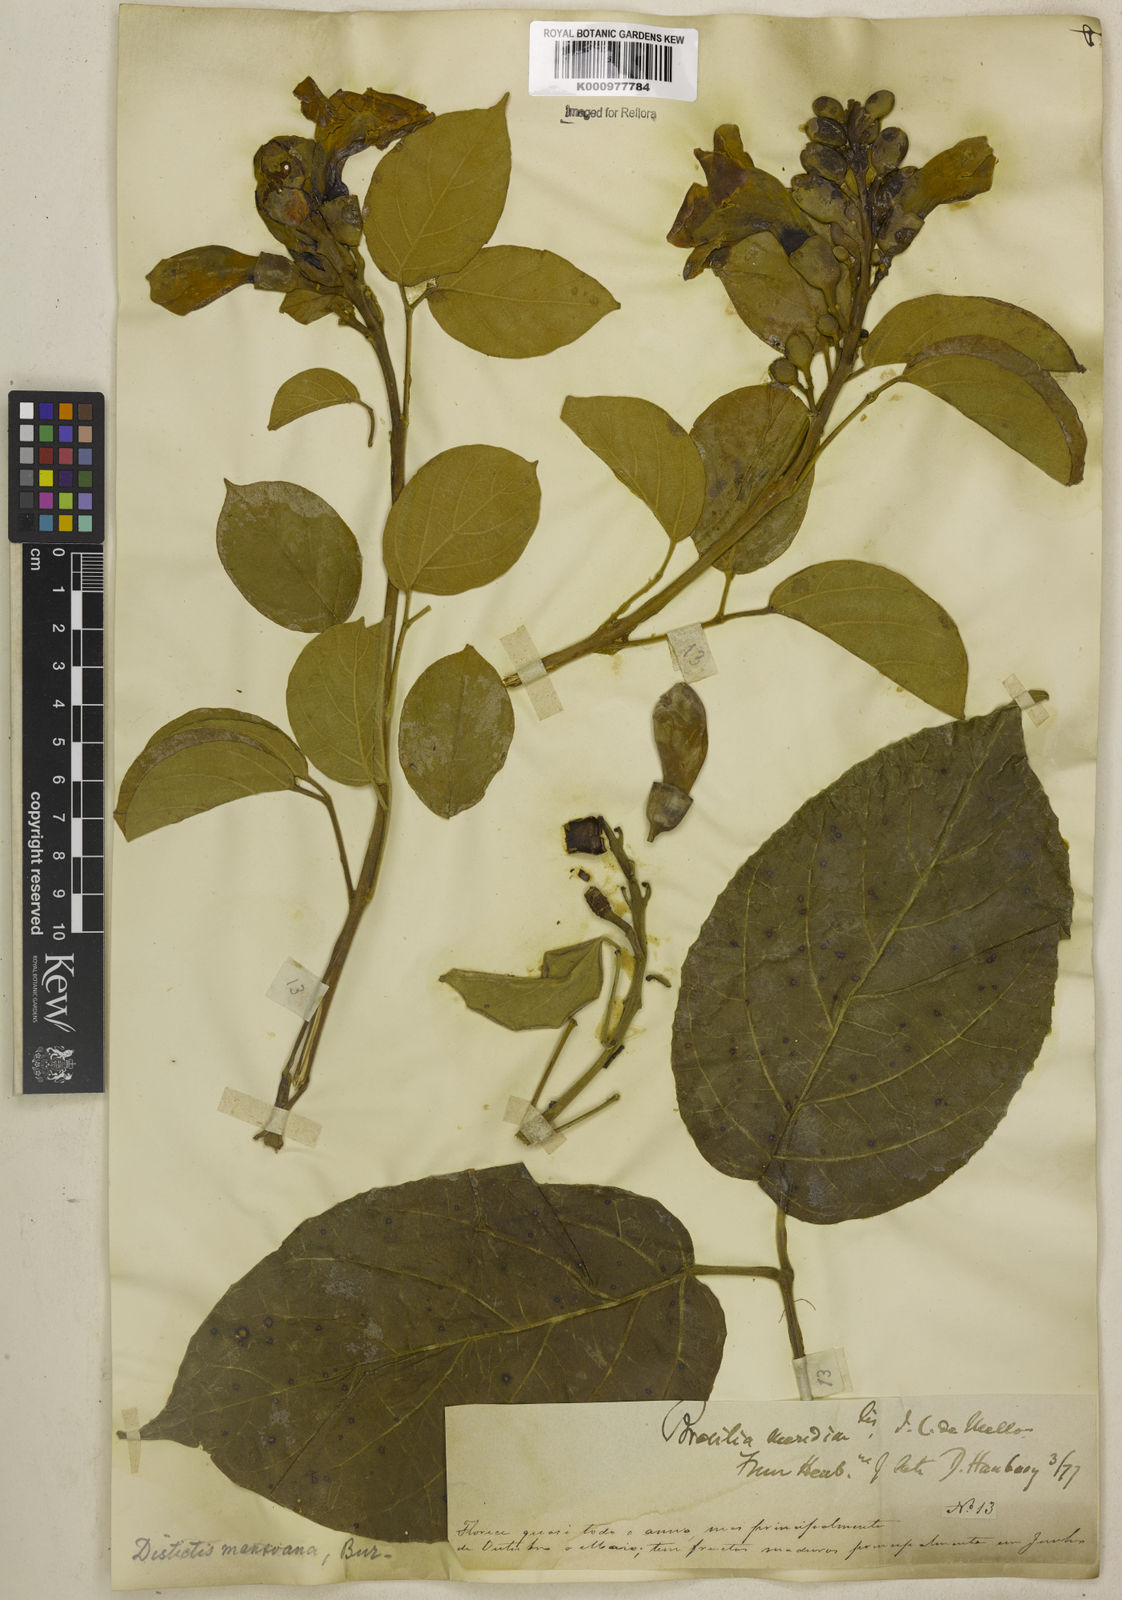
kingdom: Plantae
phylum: Tracheophyta
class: Magnoliopsida
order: Lamiales
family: Bignoniaceae
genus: Amphilophium
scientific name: Amphilophium mansoanum
